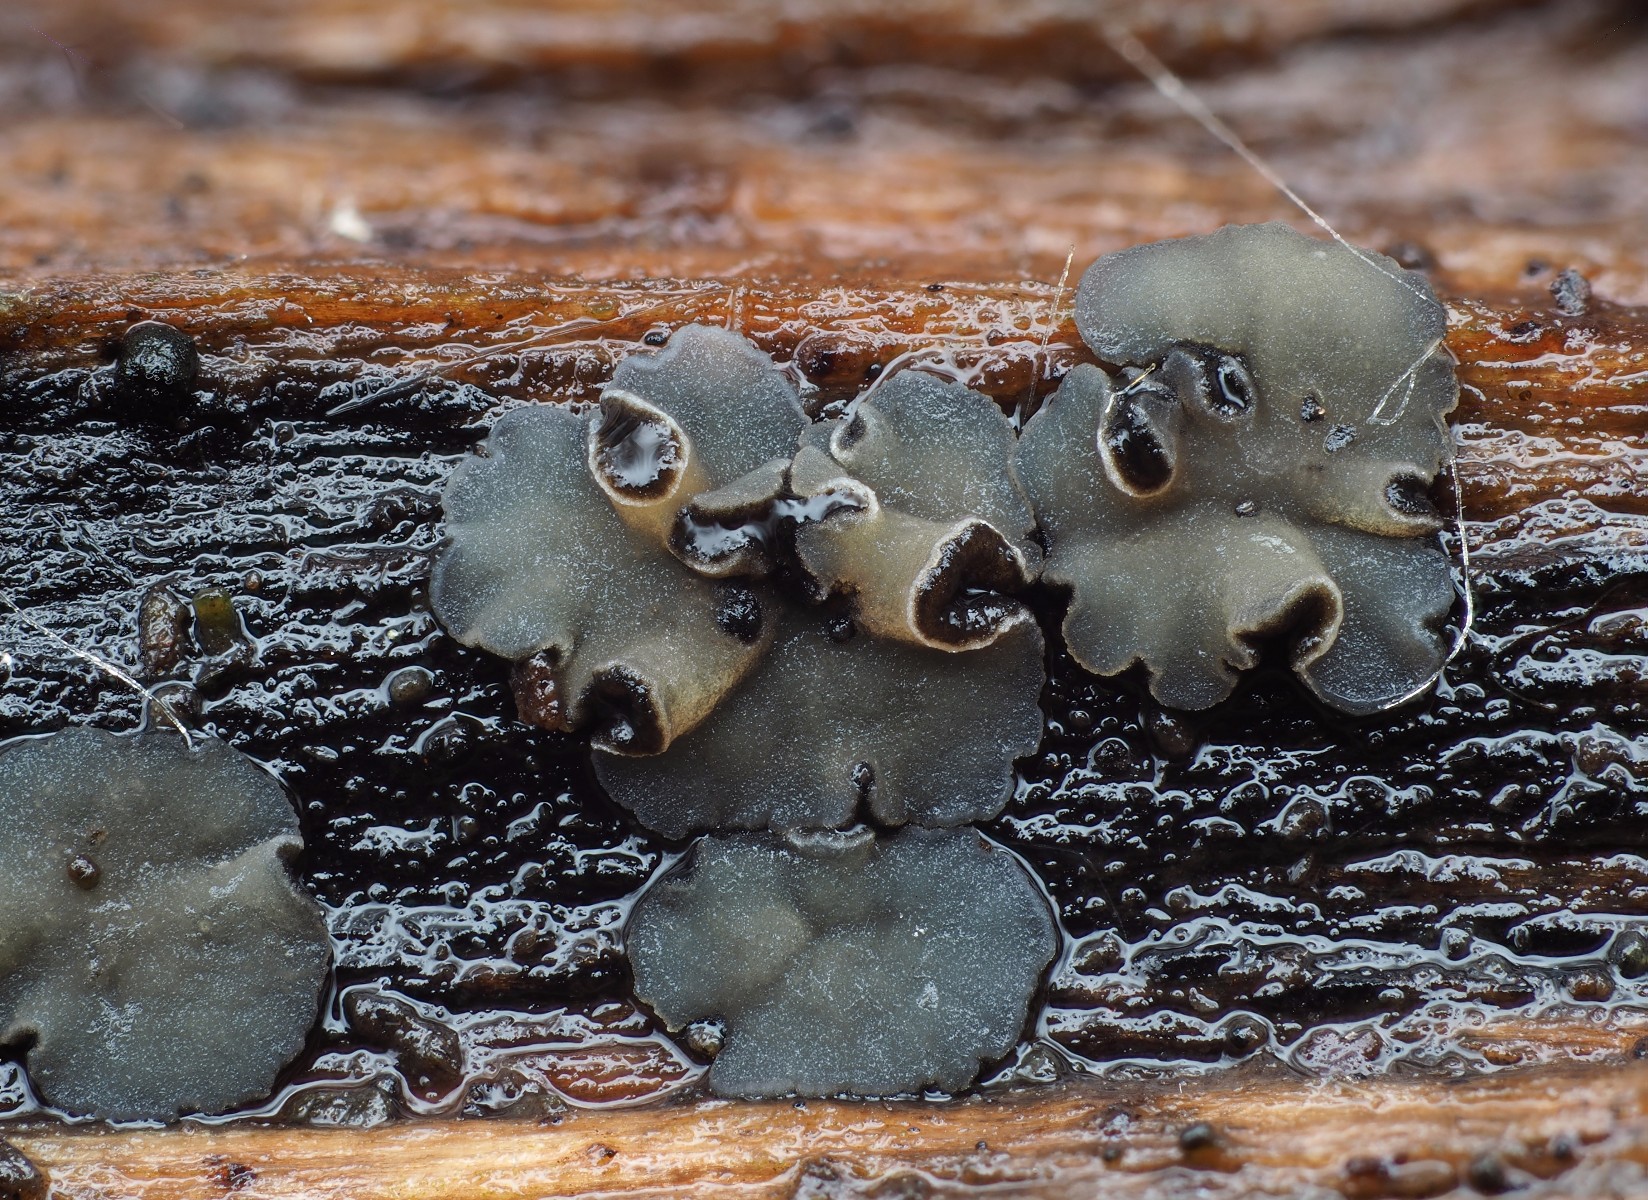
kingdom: Fungi
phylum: Ascomycota
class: Leotiomycetes
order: Helotiales
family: Mollisiaceae
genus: Mollisia
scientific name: Mollisia
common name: gråskive
